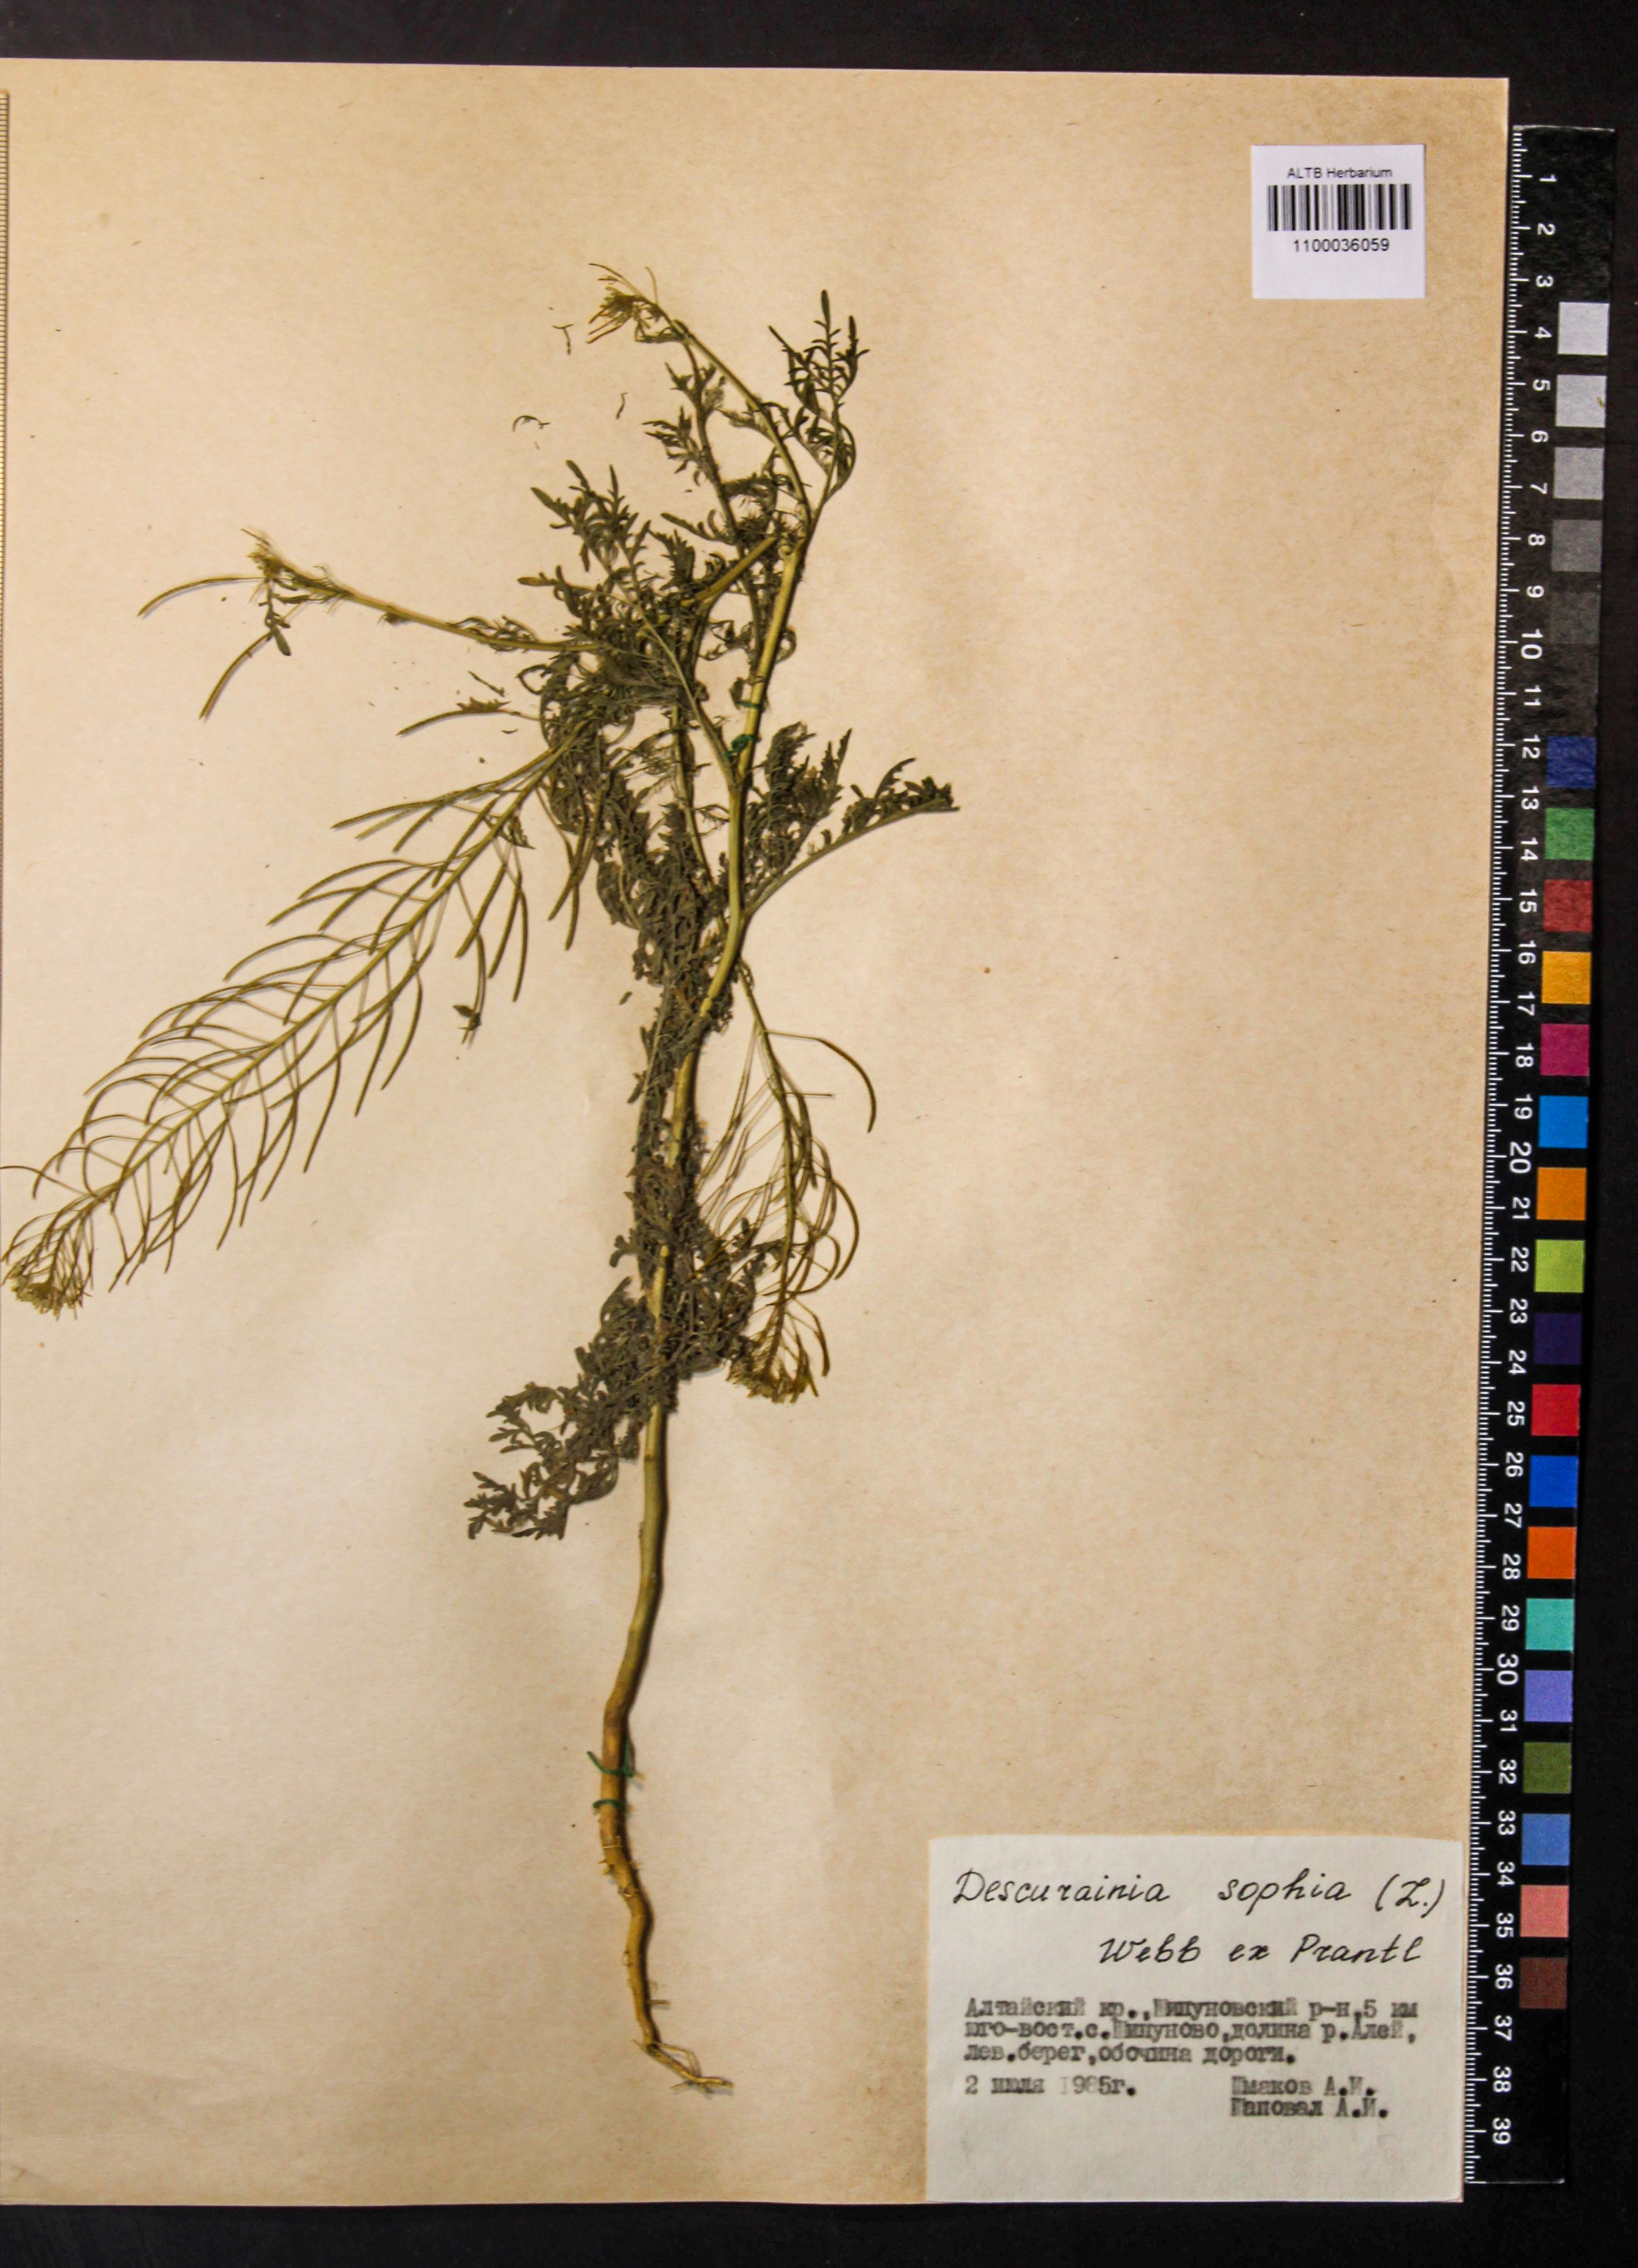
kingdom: Plantae
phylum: Tracheophyta
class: Magnoliopsida
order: Brassicales
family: Brassicaceae
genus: Descurainia
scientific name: Descurainia sophia
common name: Flixweed
